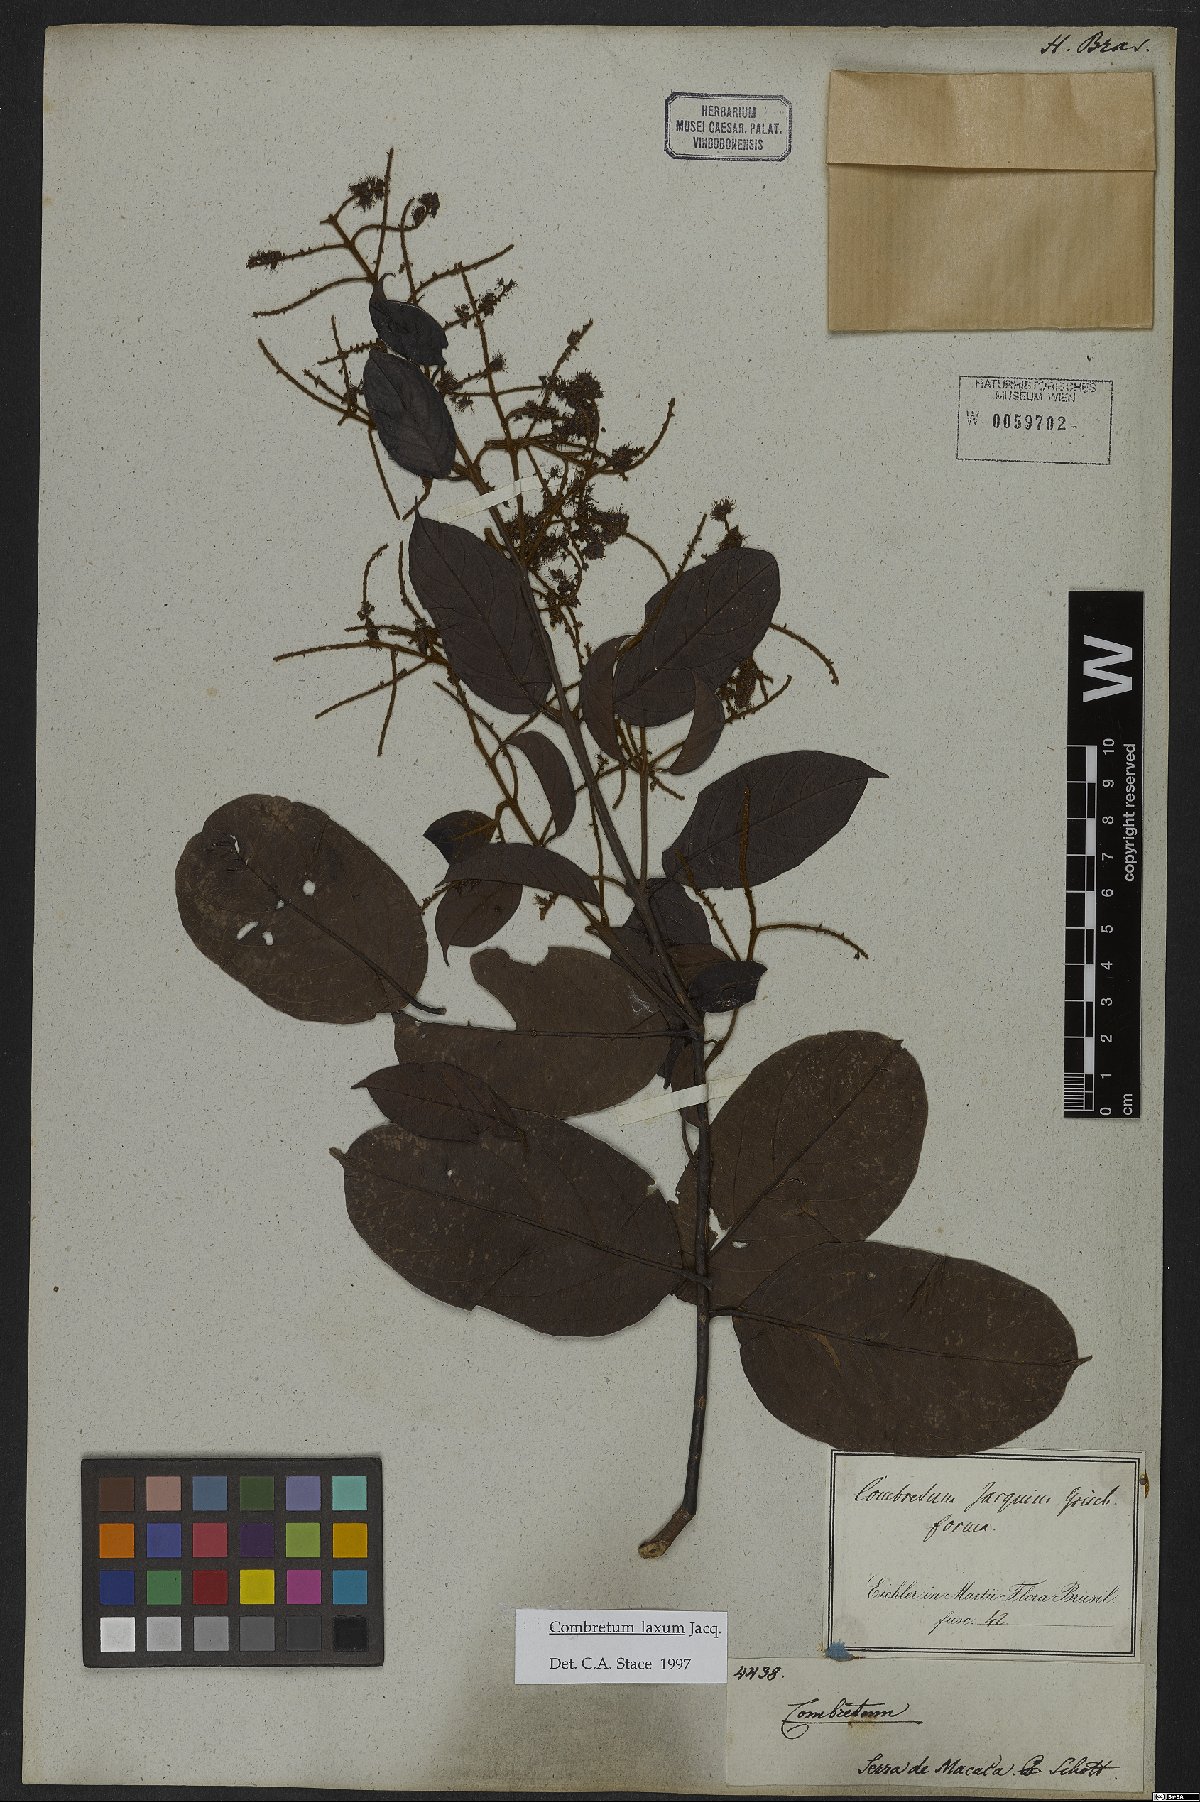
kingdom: Plantae
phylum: Tracheophyta
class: Magnoliopsida
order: Myrtales
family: Combretaceae
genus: Combretum
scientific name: Combretum laxum
